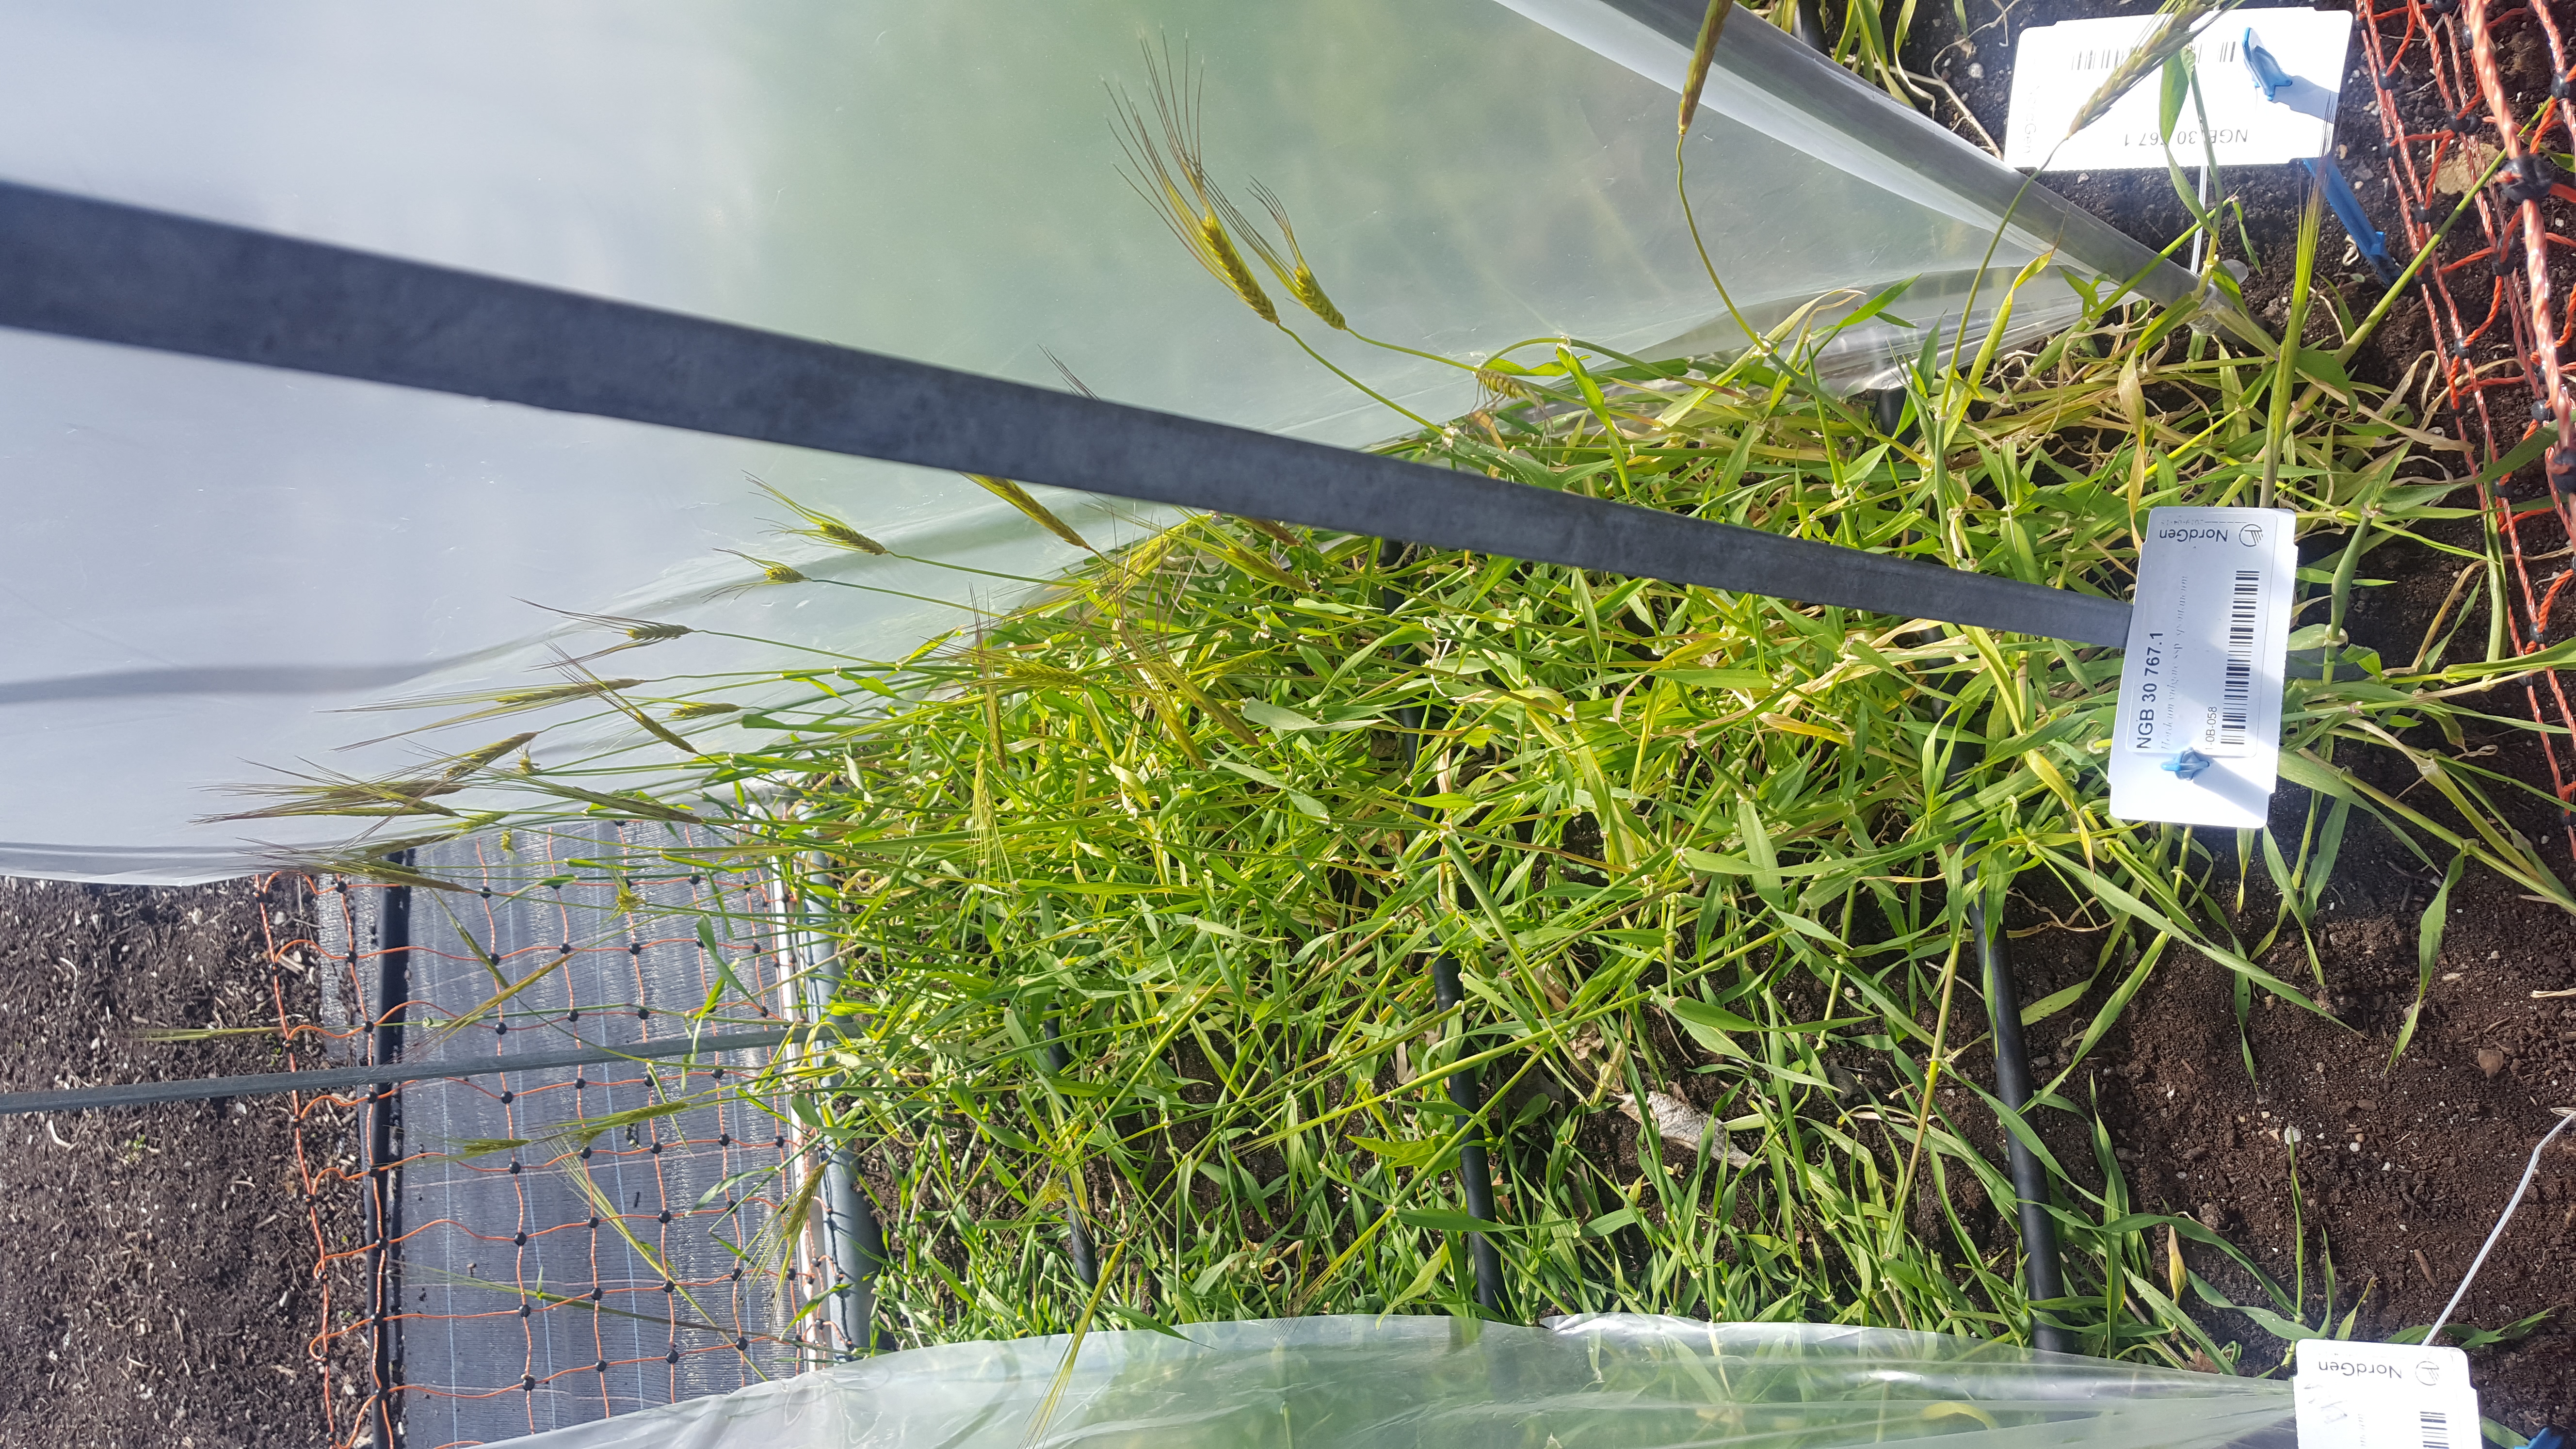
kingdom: Plantae
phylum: Tracheophyta
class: Liliopsida
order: Poales
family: Poaceae
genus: Hordeum
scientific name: Hordeum spontaneum
